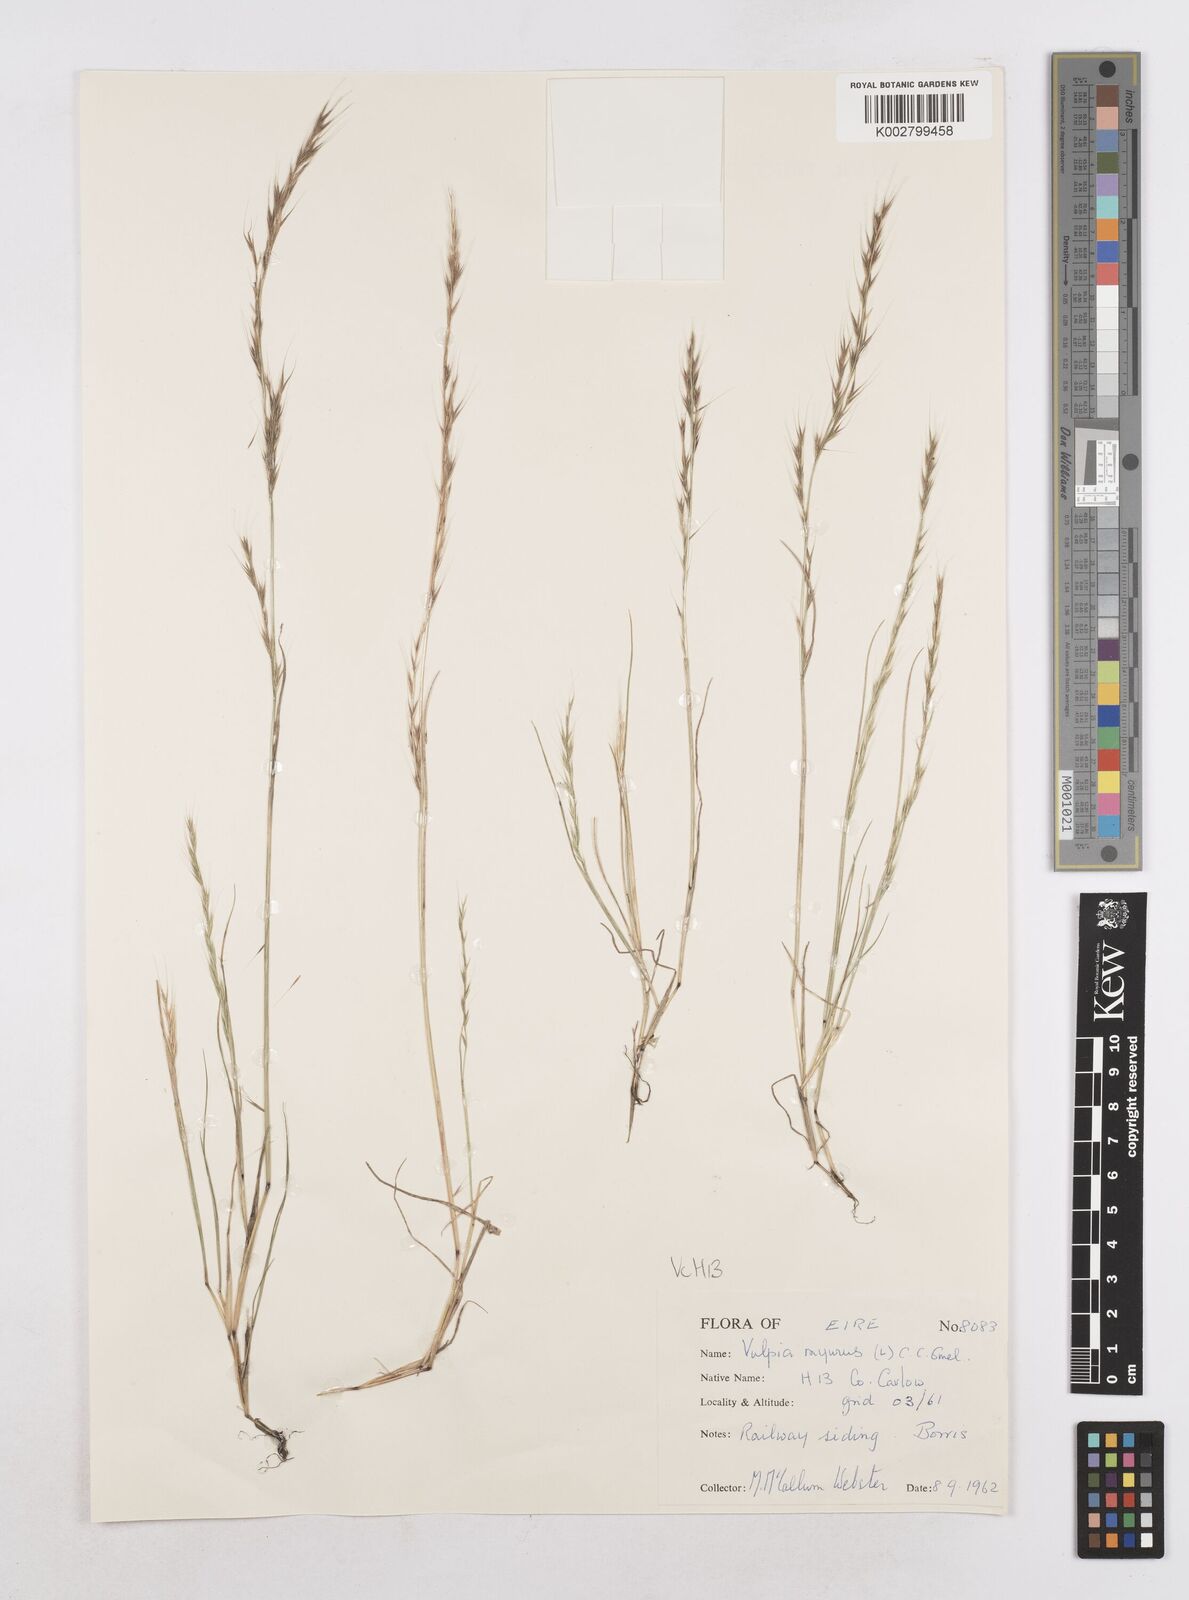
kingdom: Plantae
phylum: Tracheophyta
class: Liliopsida
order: Poales
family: Poaceae
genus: Festuca
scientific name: Festuca myuros
